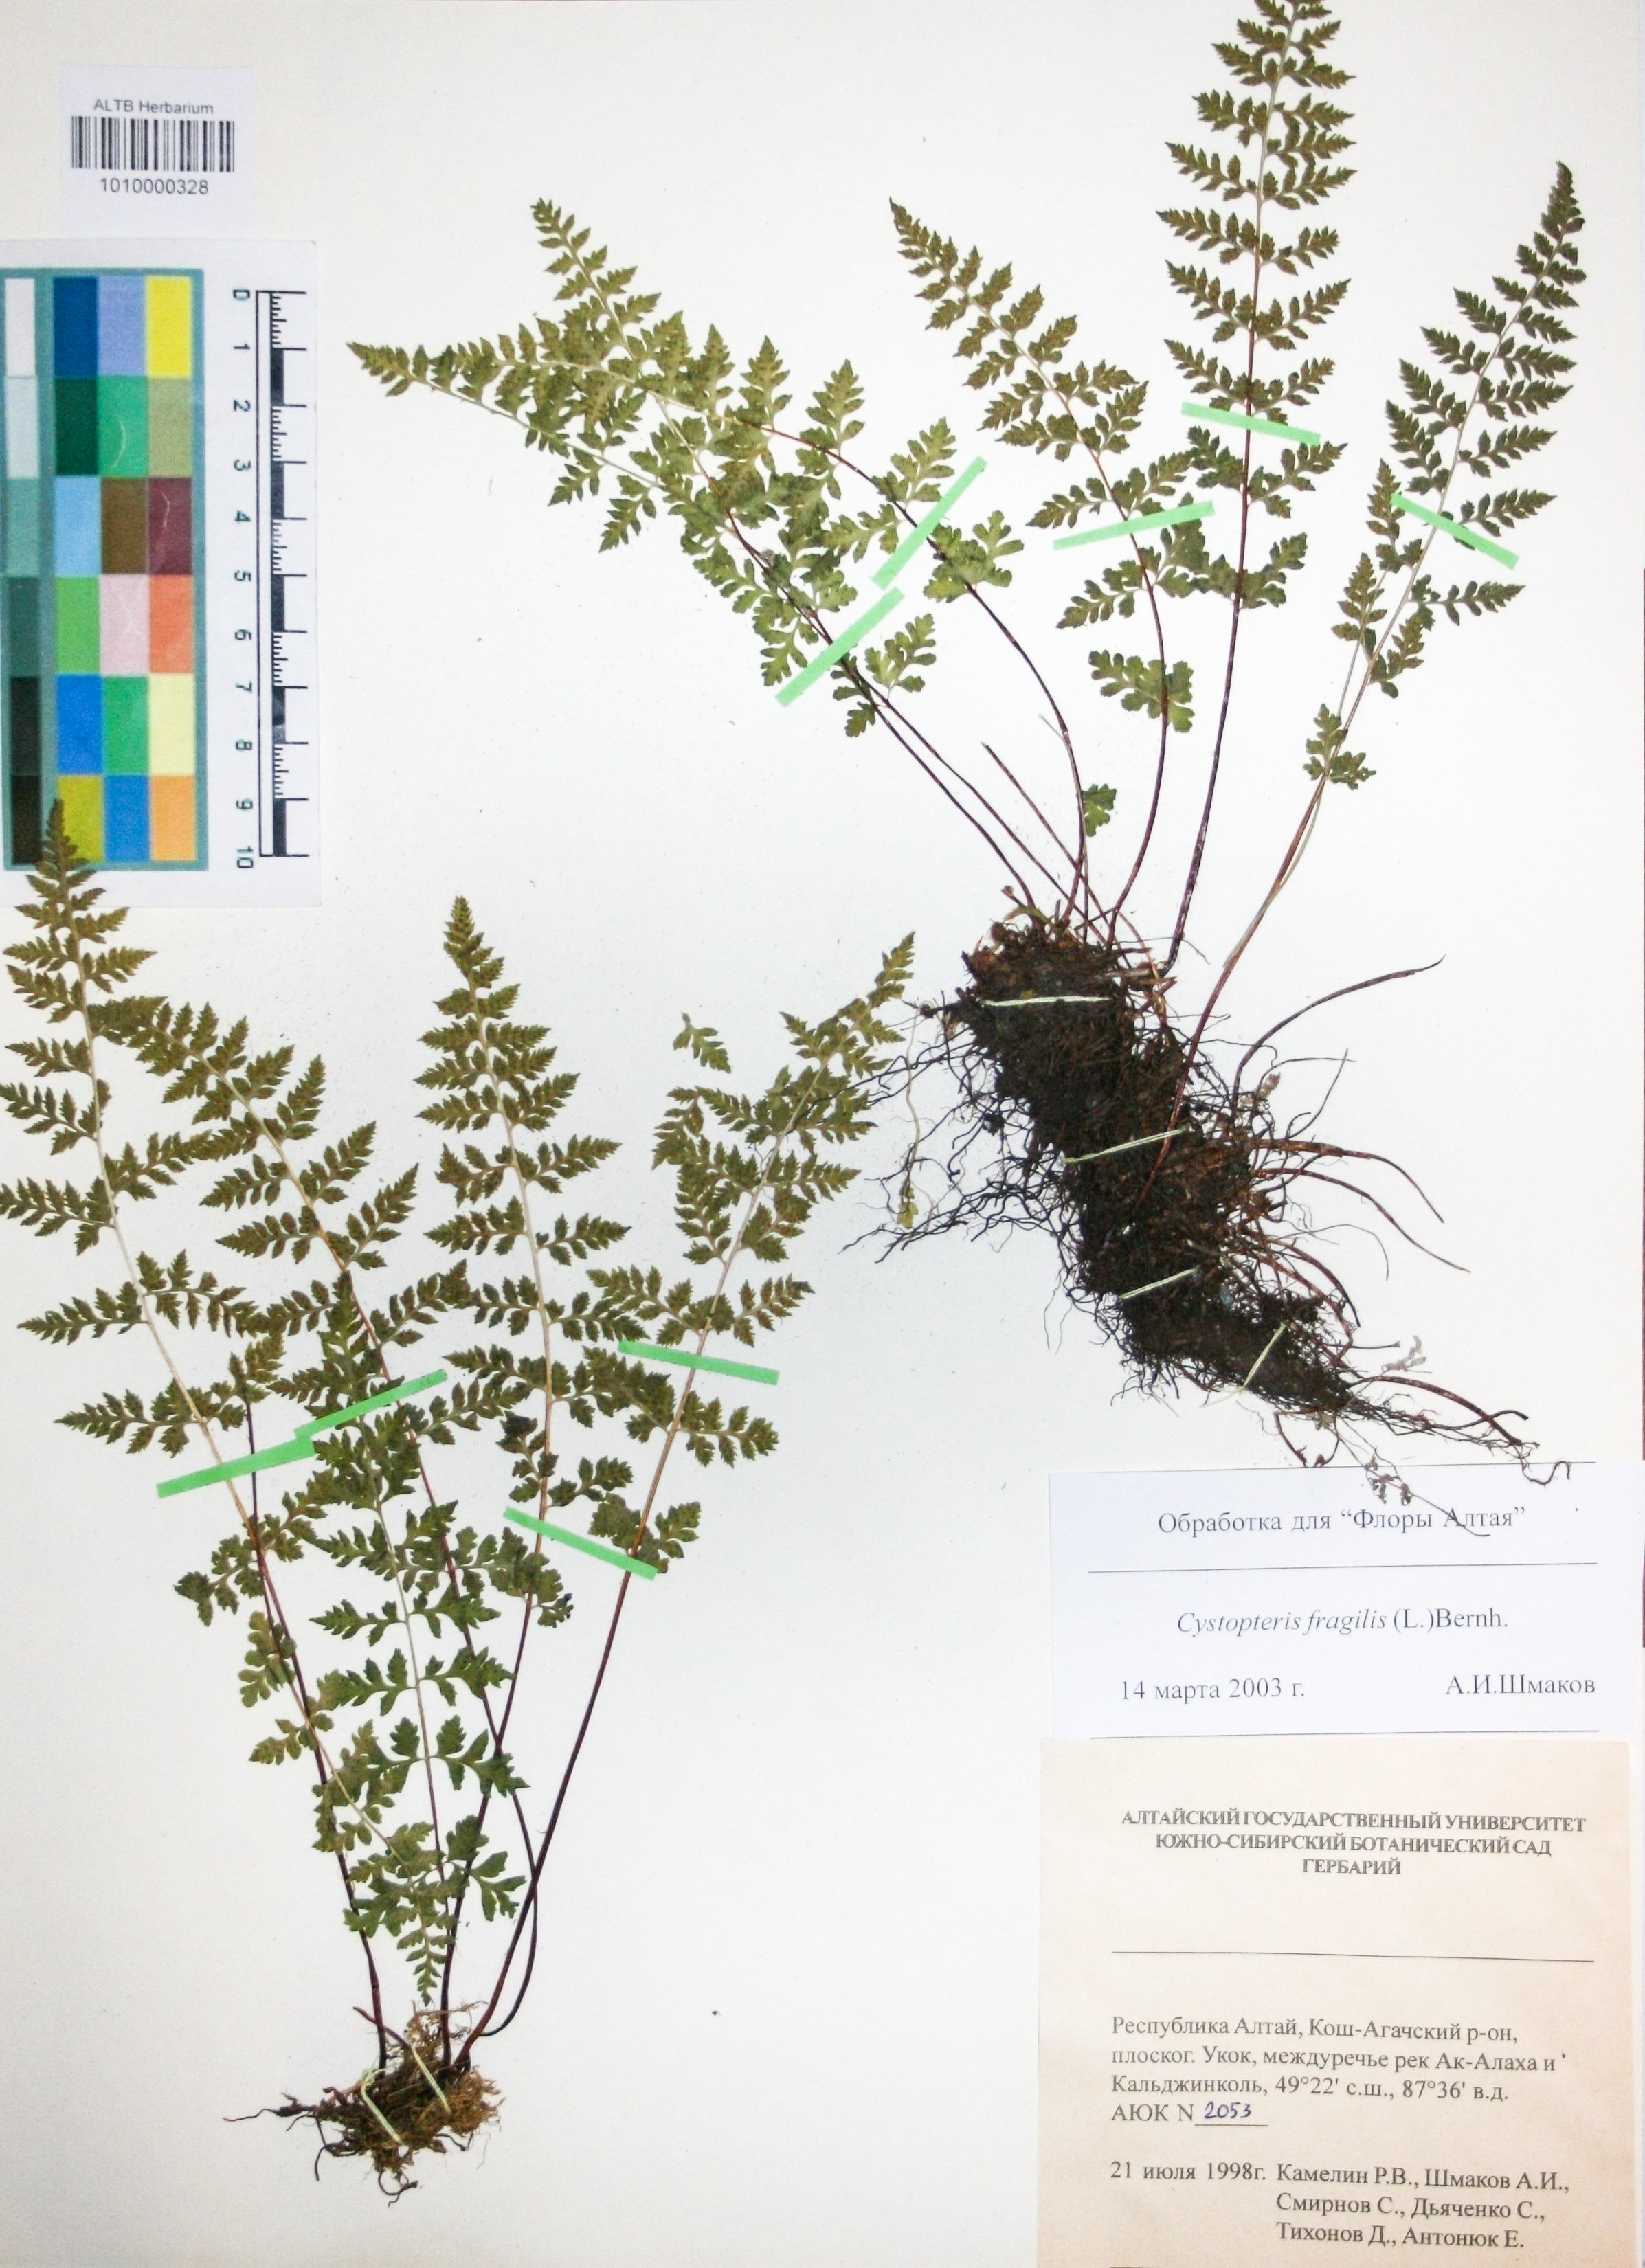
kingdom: Plantae
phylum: Tracheophyta
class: Polypodiopsida
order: Polypodiales
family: Cystopteridaceae
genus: Cystopteris
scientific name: Cystopteris fragilis
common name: Brittle bladder fern
